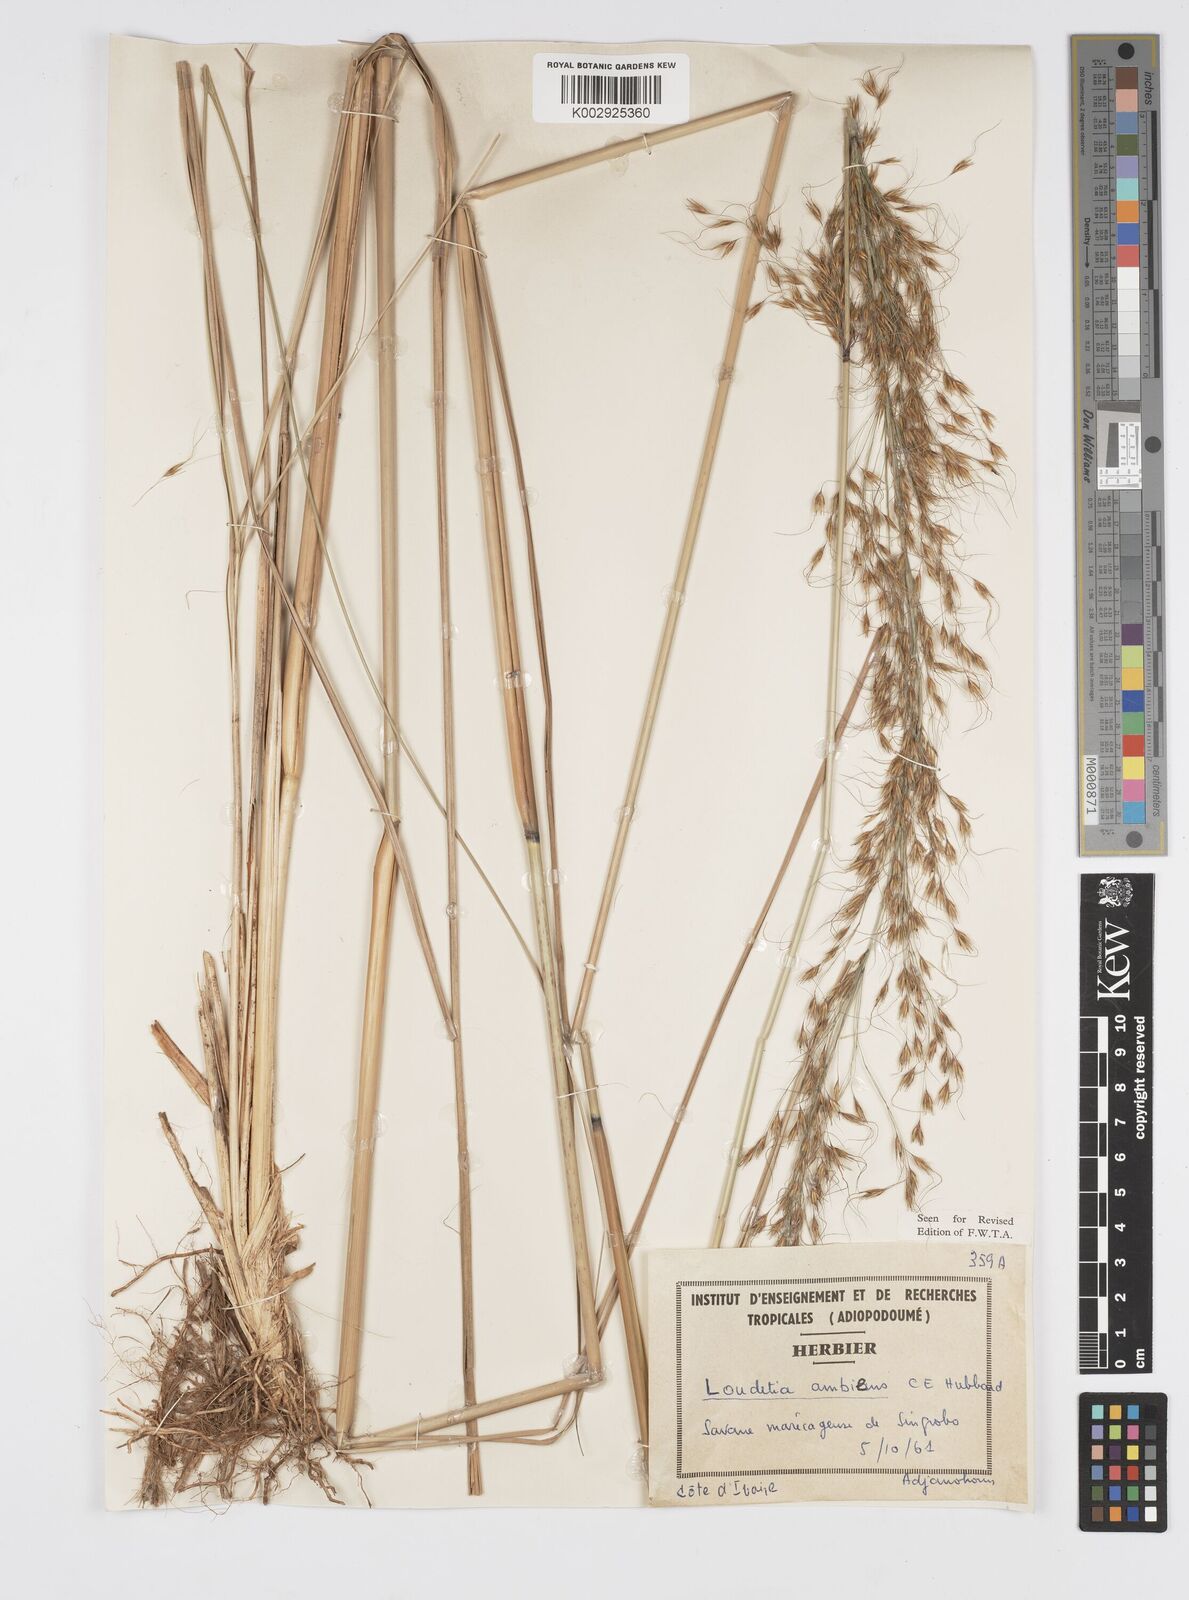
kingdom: Plantae
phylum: Tracheophyta
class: Liliopsida
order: Poales
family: Poaceae
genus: Loudetiopsis
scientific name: Loudetiopsis ambiens
